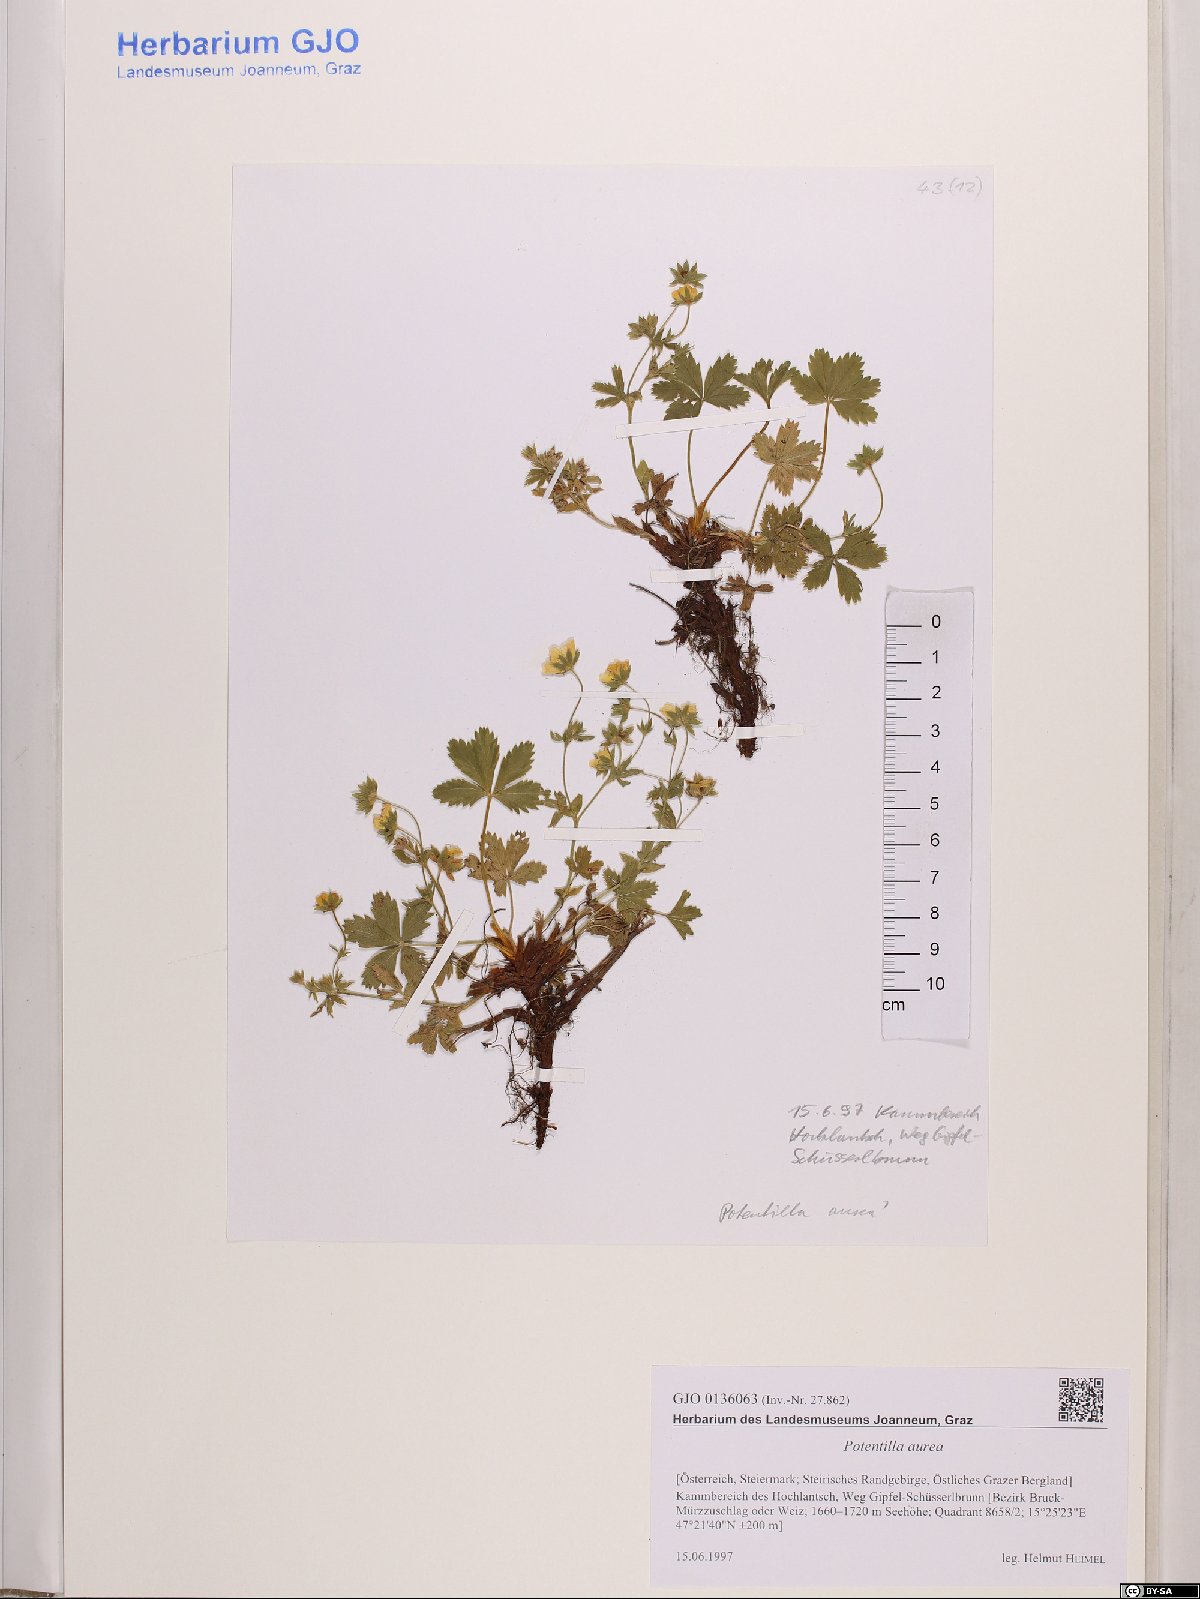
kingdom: Plantae
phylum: Tracheophyta
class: Magnoliopsida
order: Rosales
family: Rosaceae
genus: Potentilla
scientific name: Potentilla aurea
